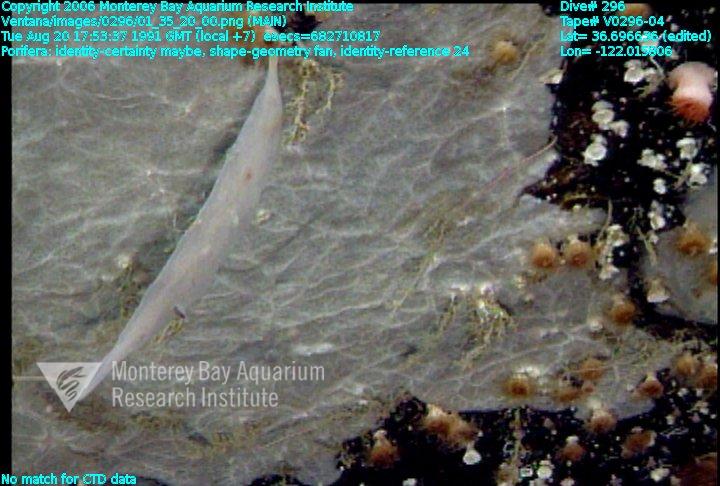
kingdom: Animalia
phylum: Porifera
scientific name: Porifera
